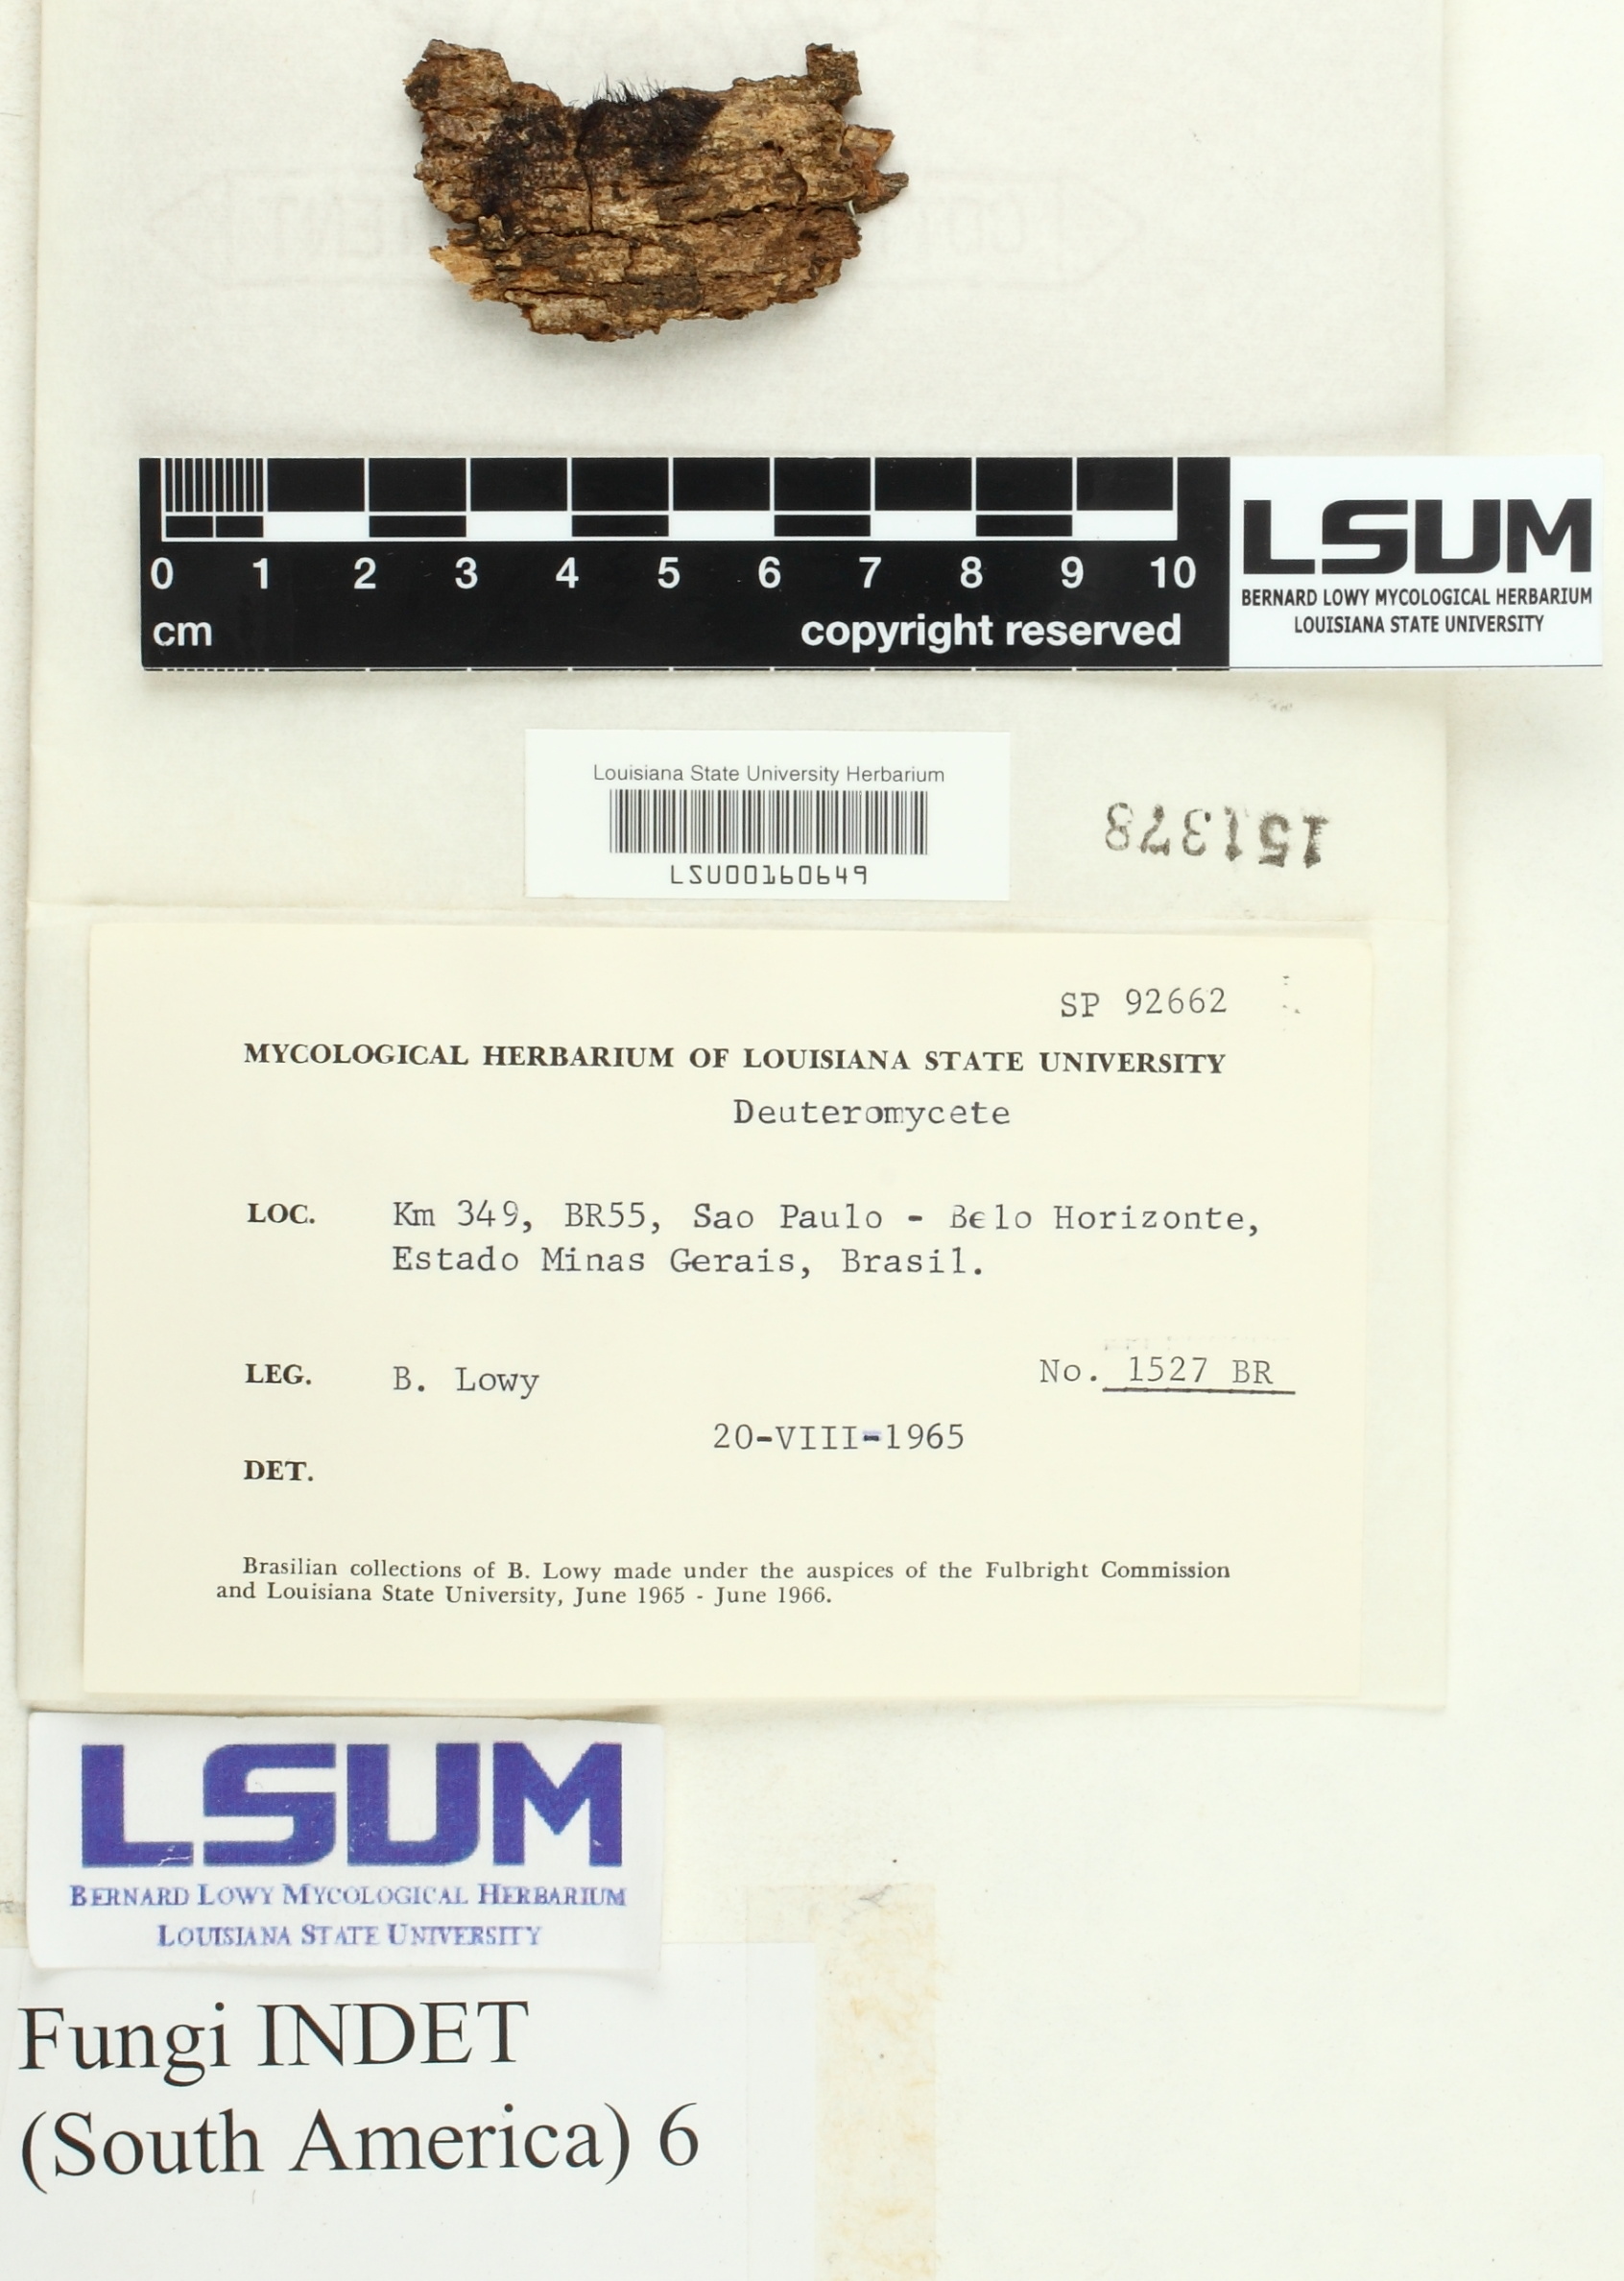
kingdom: Fungi
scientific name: Fungi
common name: Fungi
